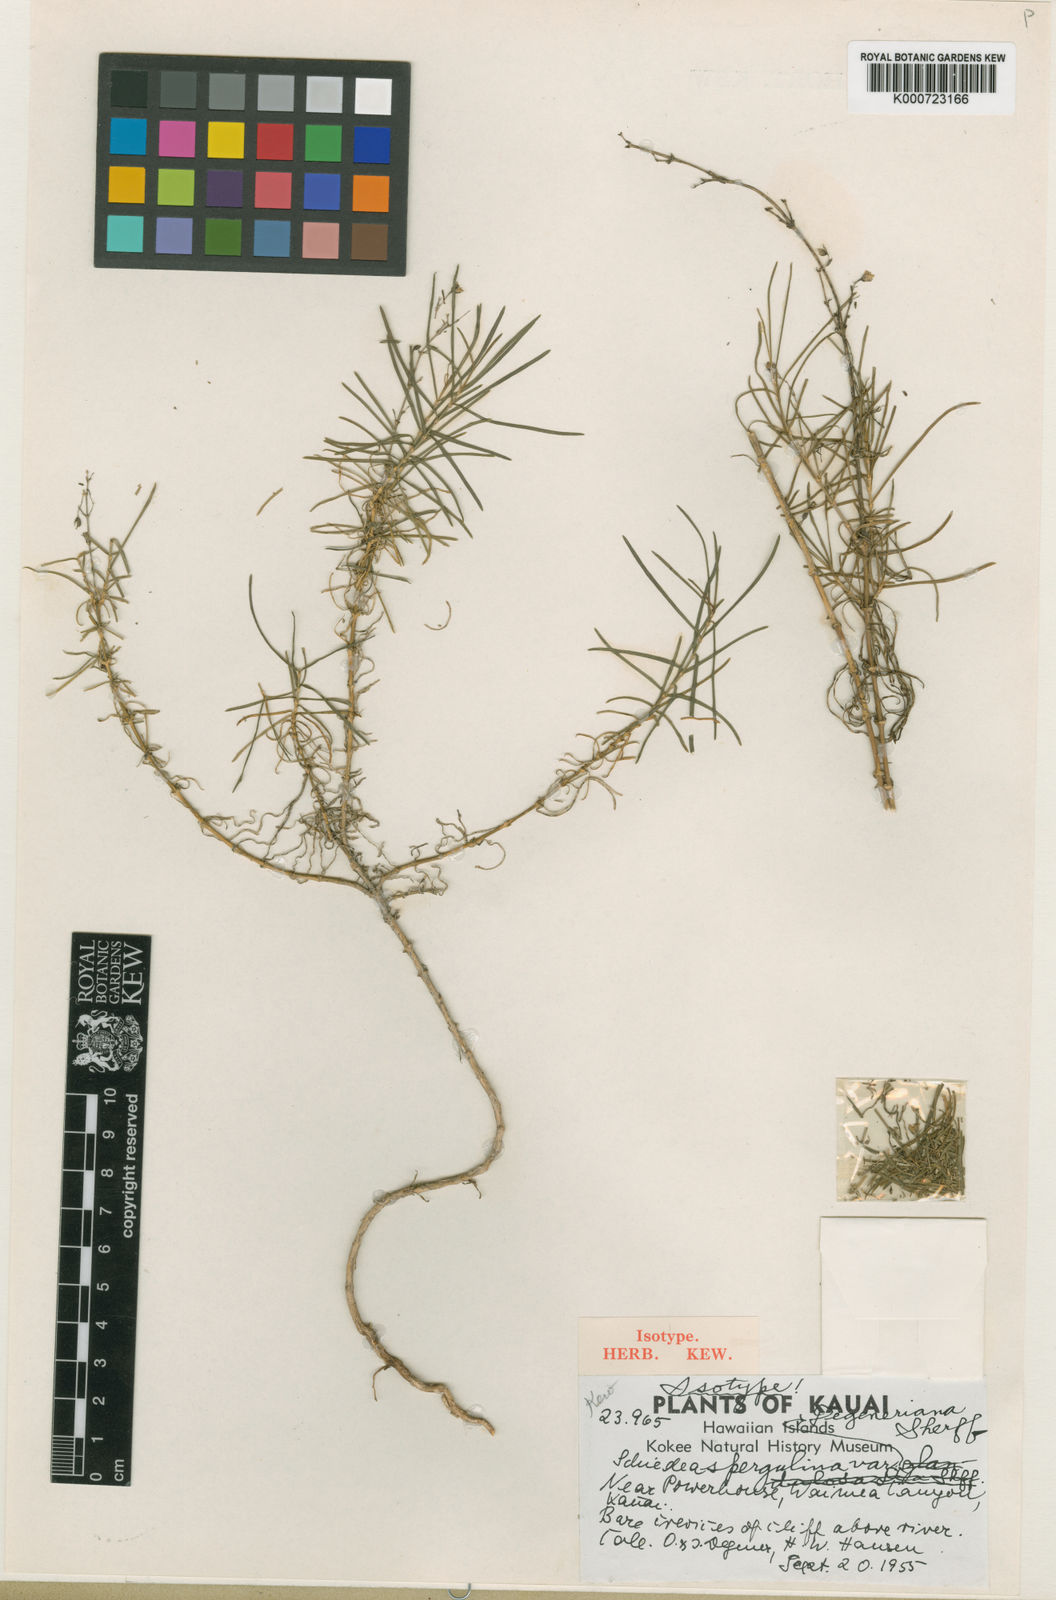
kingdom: Plantae
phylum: Tracheophyta
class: Magnoliopsida
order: Caryophyllales
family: Caryophyllaceae
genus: Schiedea
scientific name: Schiedea spergulina
